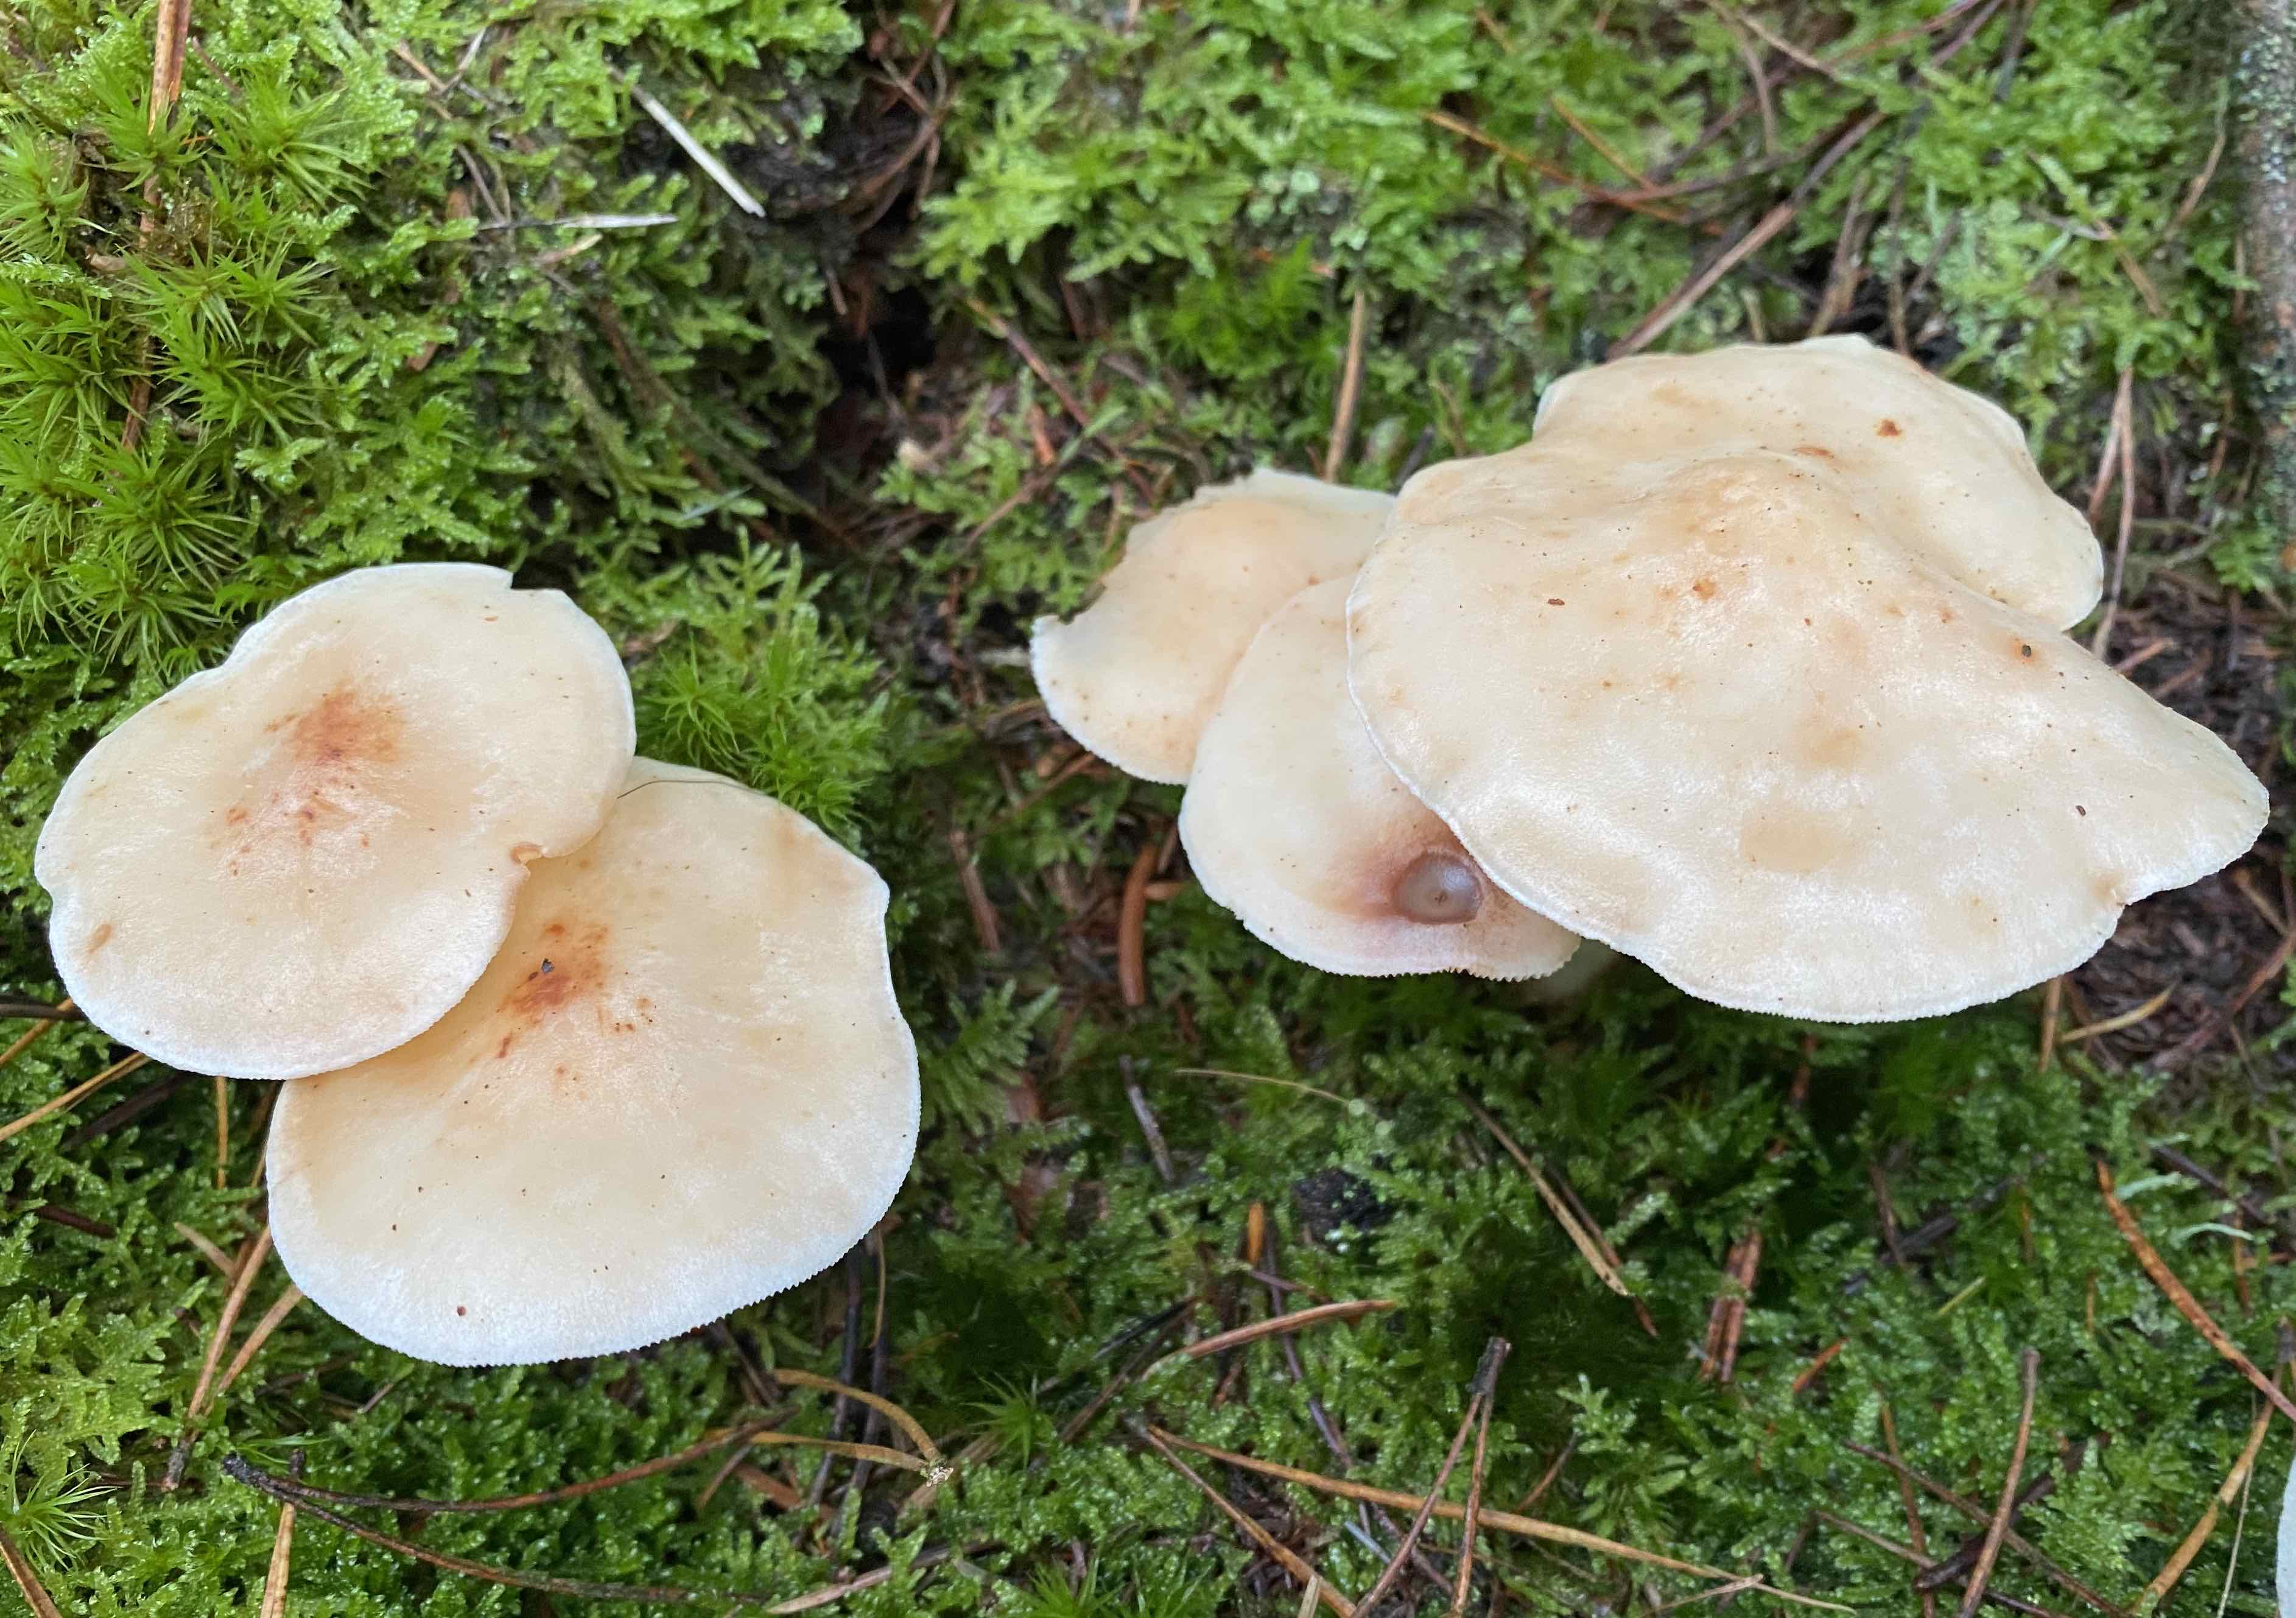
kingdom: Fungi
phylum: Basidiomycota
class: Agaricomycetes
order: Agaricales
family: Omphalotaceae
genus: Rhodocollybia
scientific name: Rhodocollybia maculata
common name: plettet fladhat
